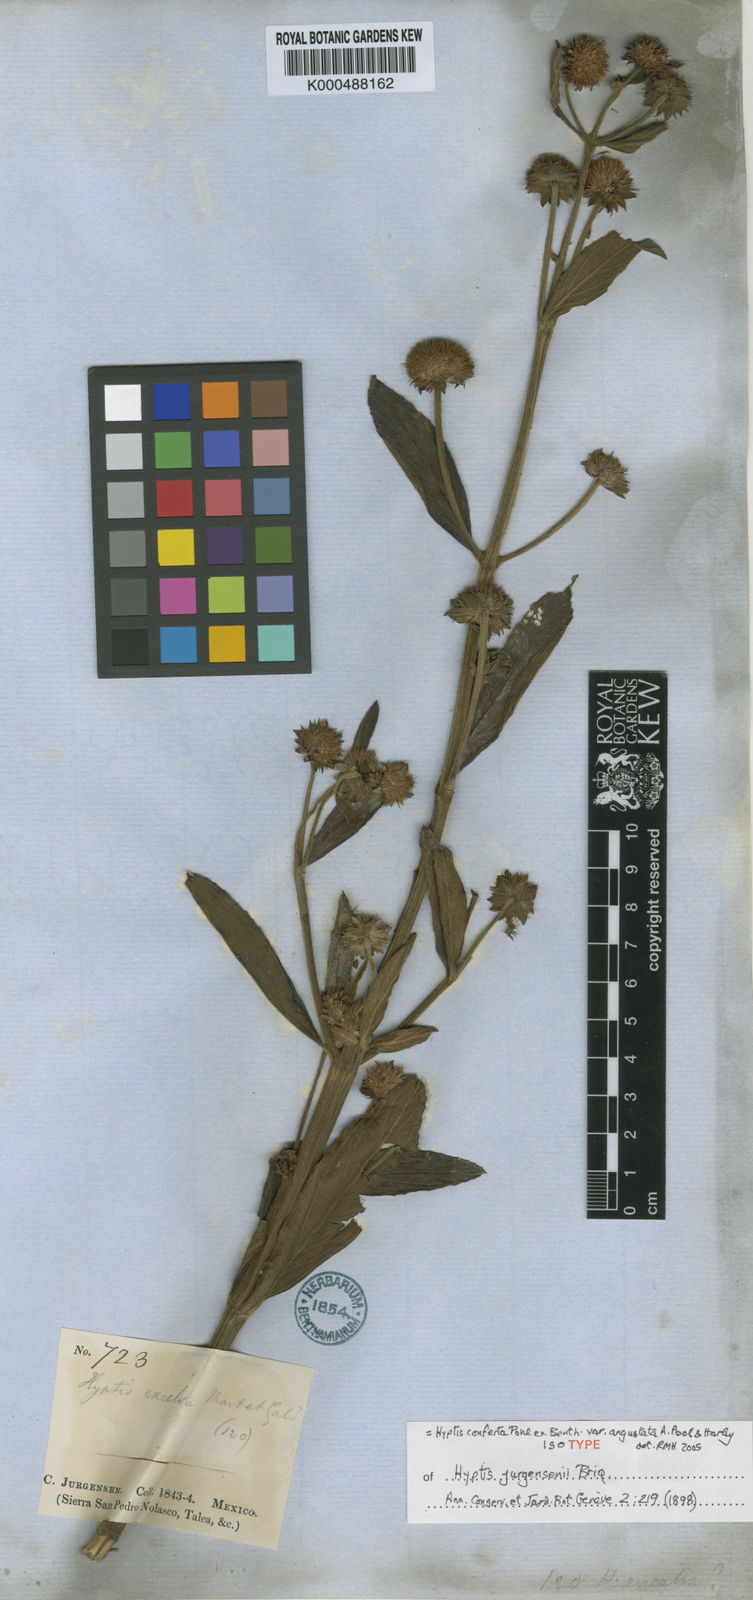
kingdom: Plantae
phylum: Tracheophyta
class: Magnoliopsida
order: Lamiales
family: Lamiaceae
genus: Hyptis
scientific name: Hyptis conferta
